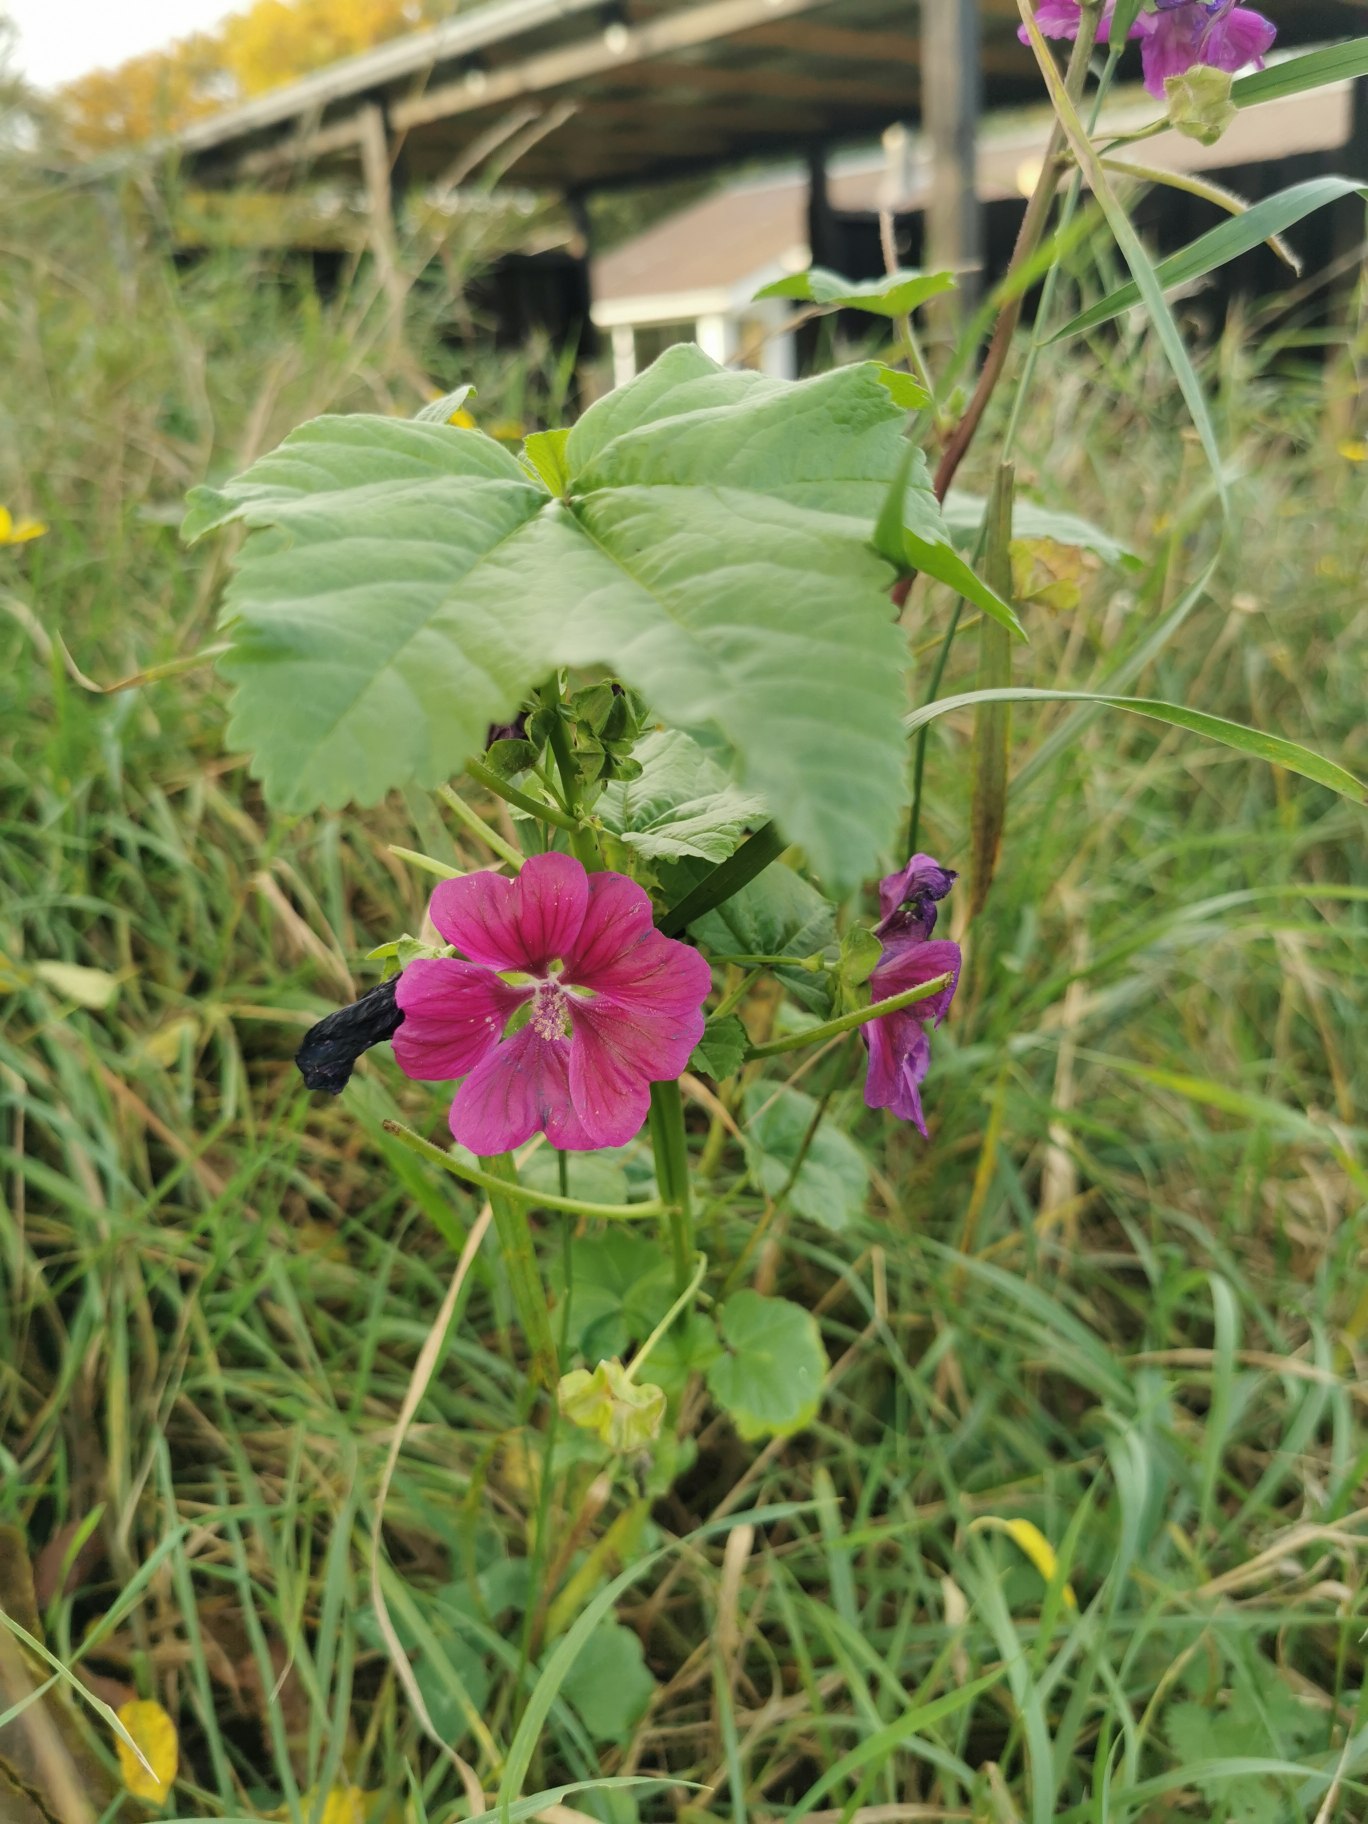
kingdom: Plantae
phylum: Tracheophyta
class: Magnoliopsida
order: Malvales
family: Malvaceae
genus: Malope
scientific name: Malope trifida
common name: Trompetkatost
